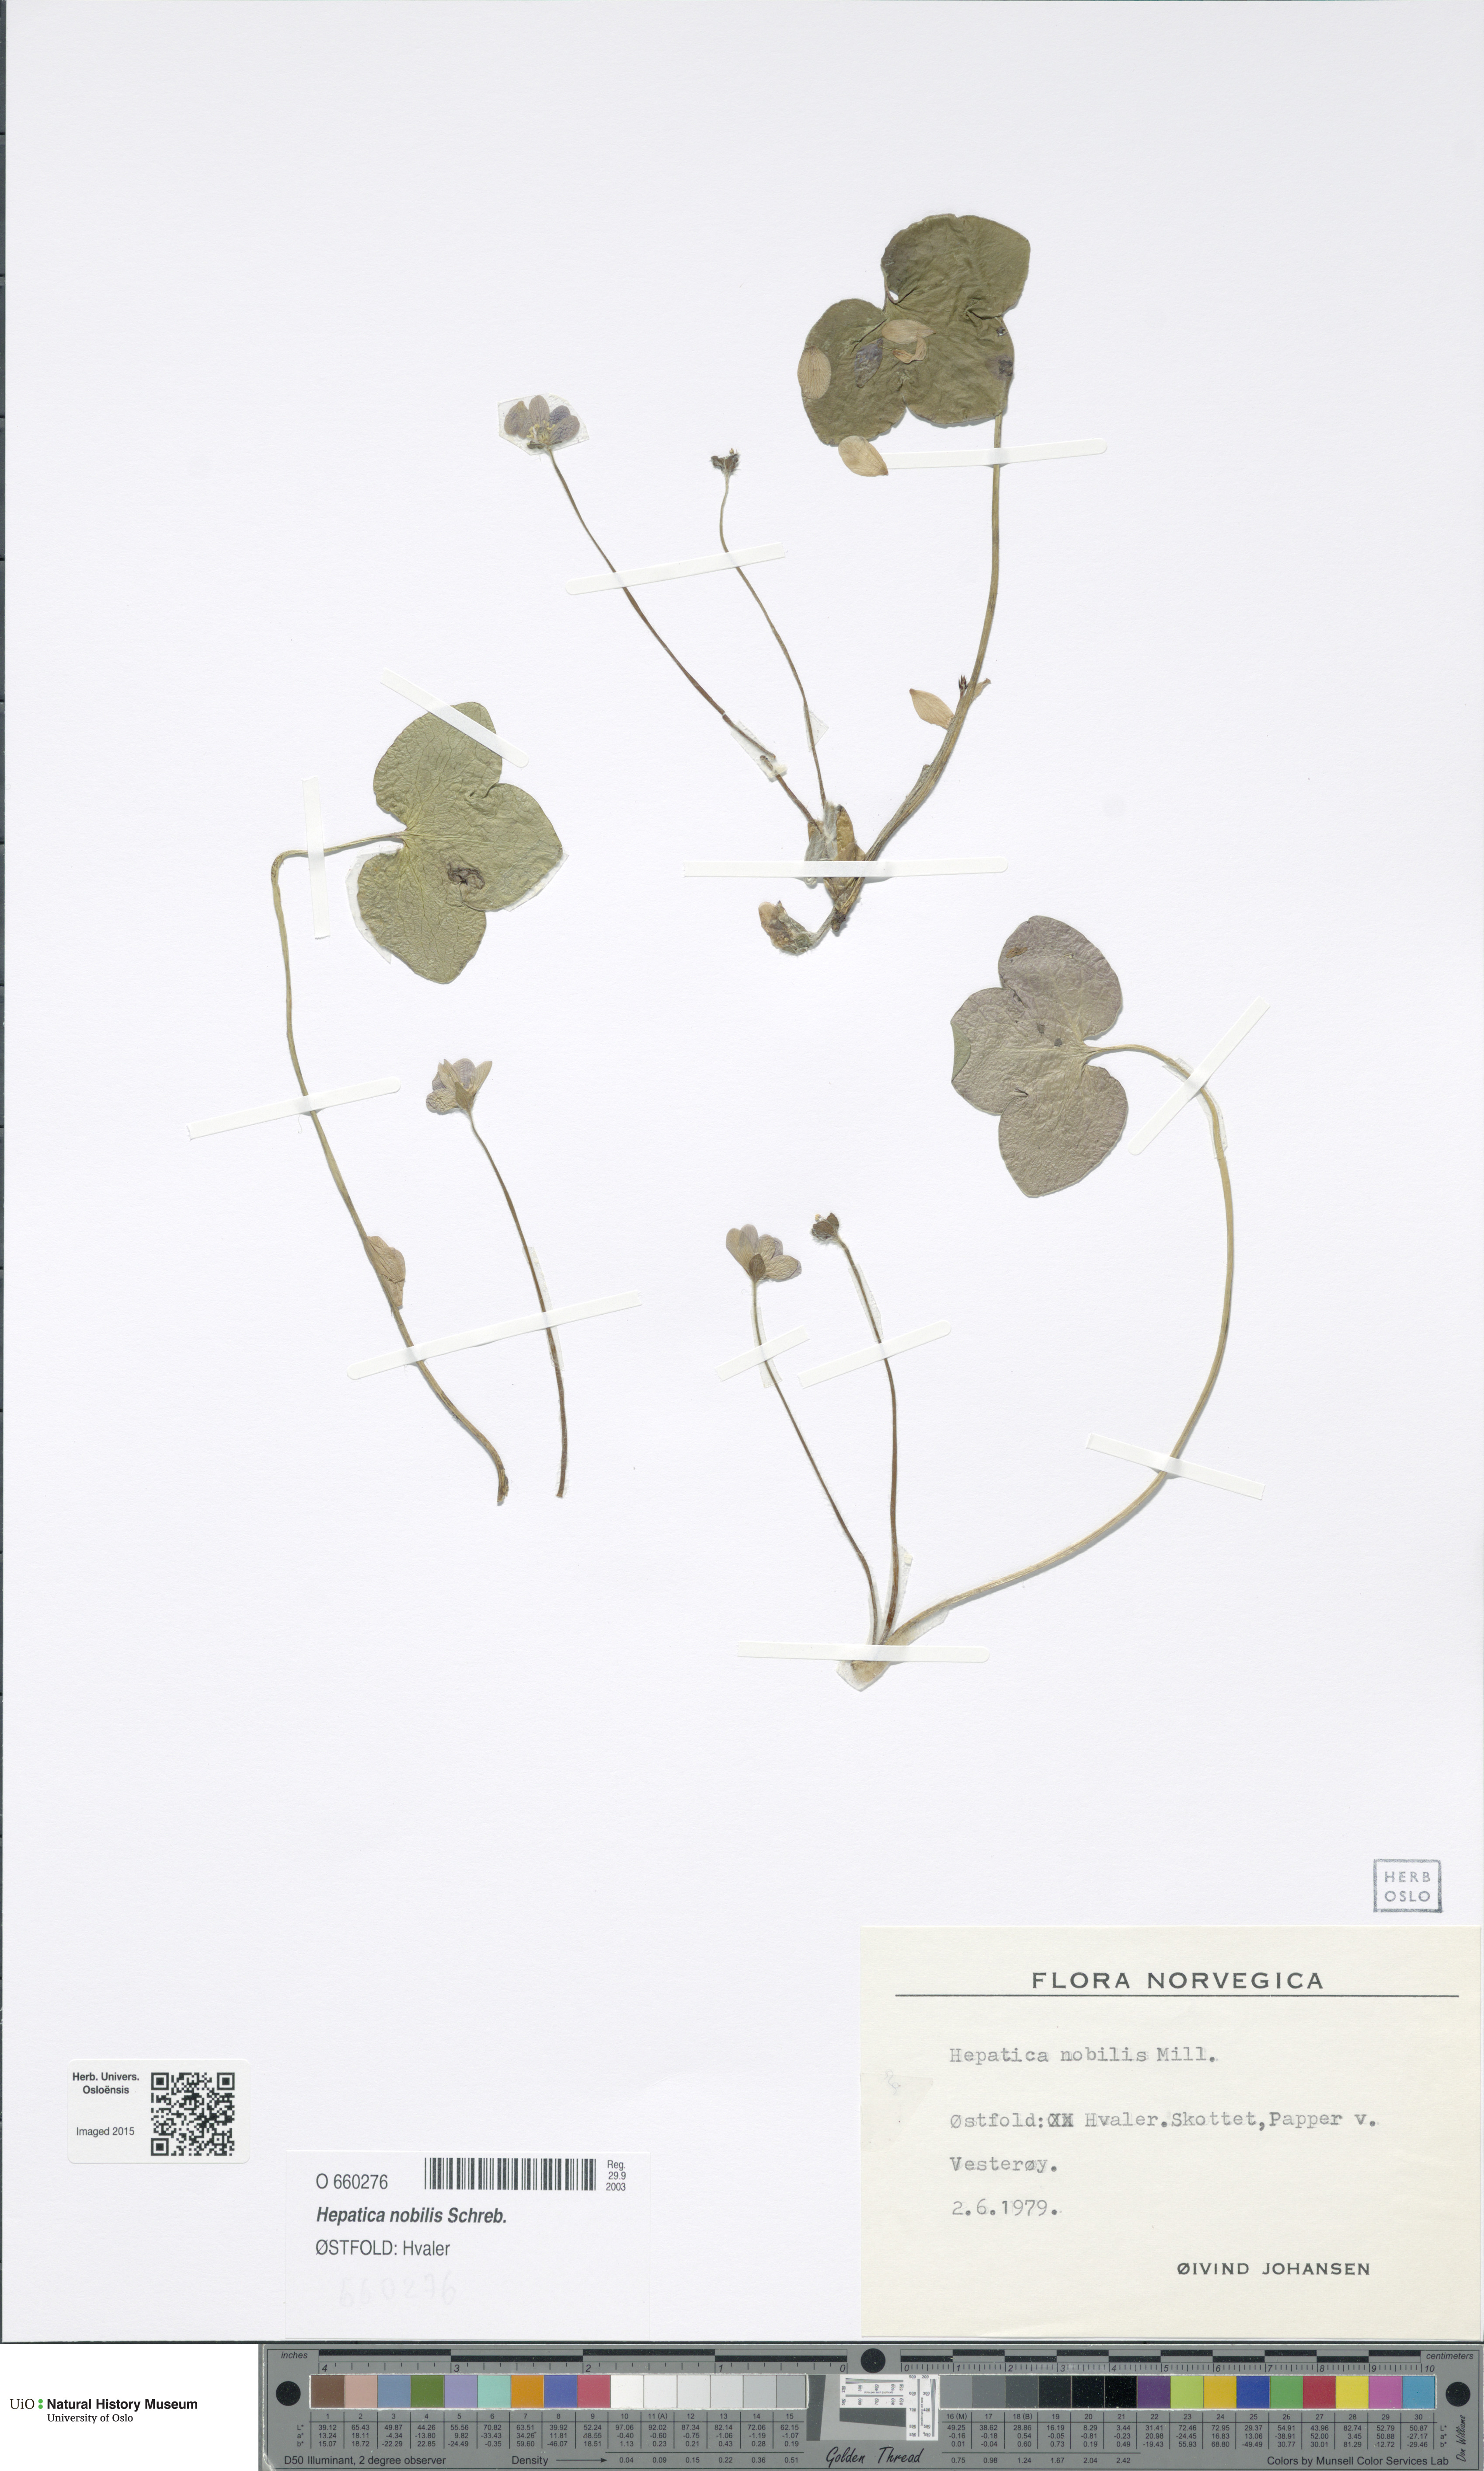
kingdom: Plantae
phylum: Tracheophyta
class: Magnoliopsida
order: Ranunculales
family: Ranunculaceae
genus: Hepatica
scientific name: Hepatica nobilis
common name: Liverleaf
